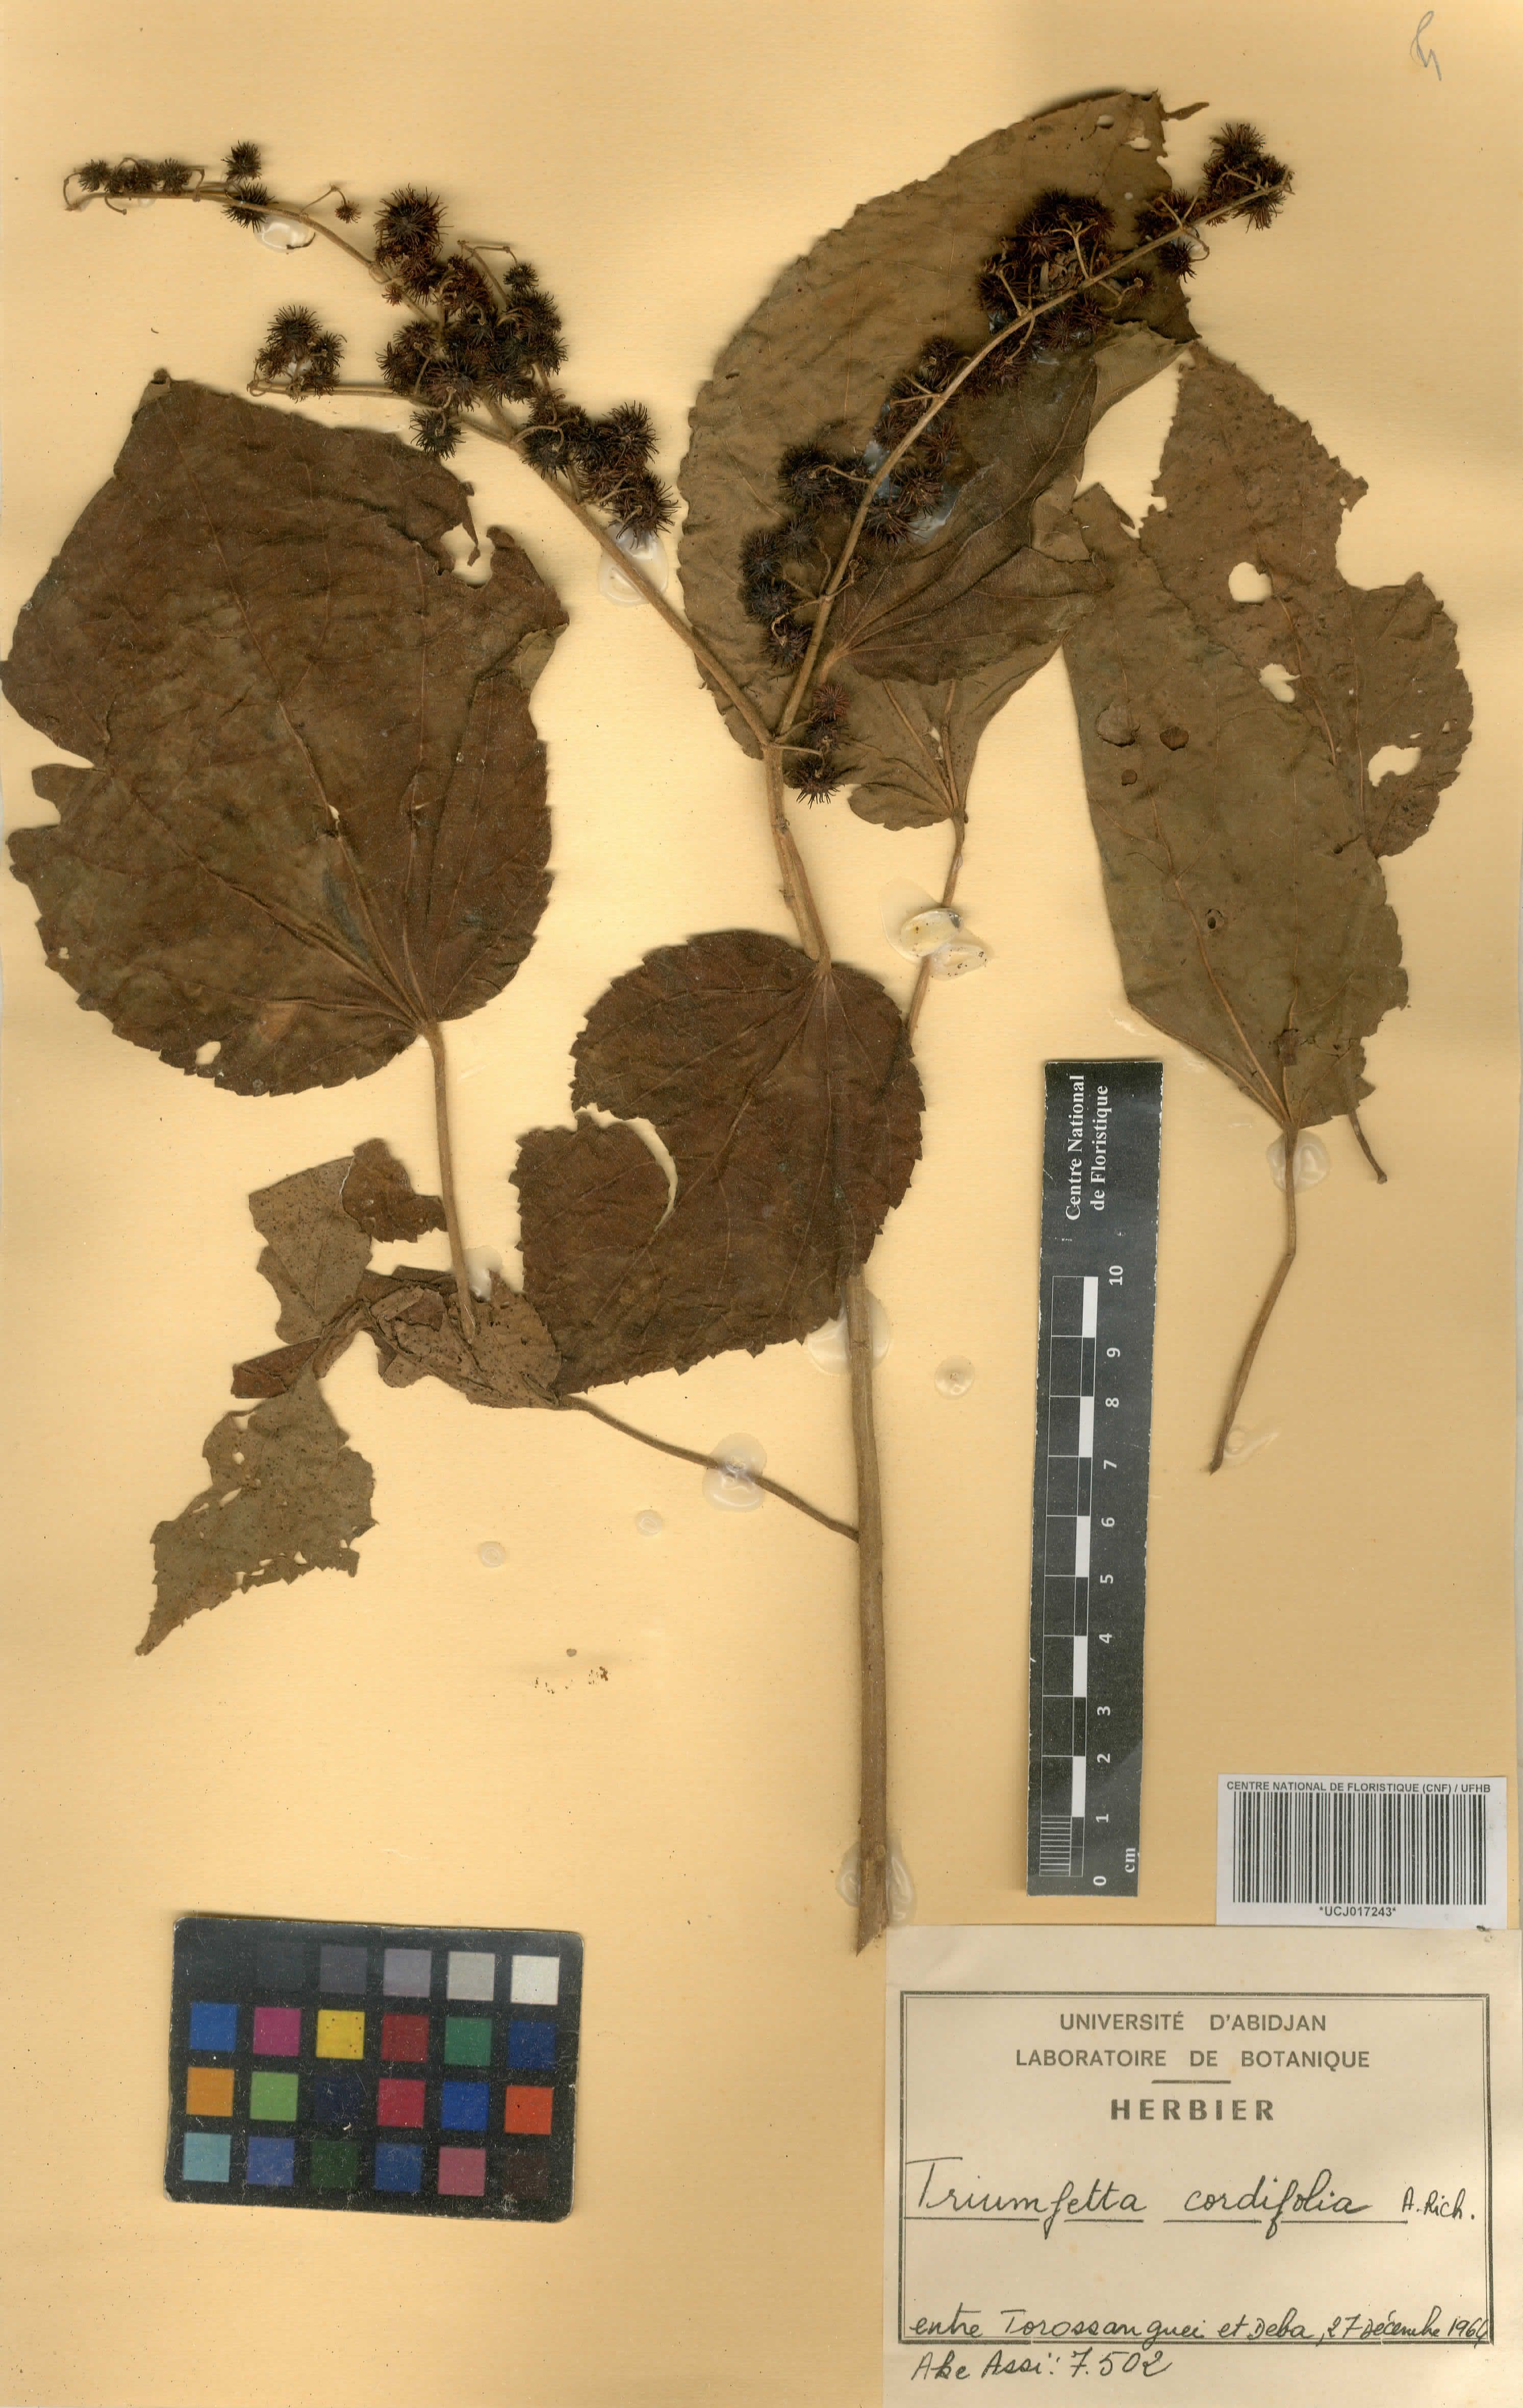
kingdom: Plantae
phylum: Tracheophyta
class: Magnoliopsida
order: Malvales
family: Malvaceae
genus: Triumfetta
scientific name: Triumfetta cordifolia
